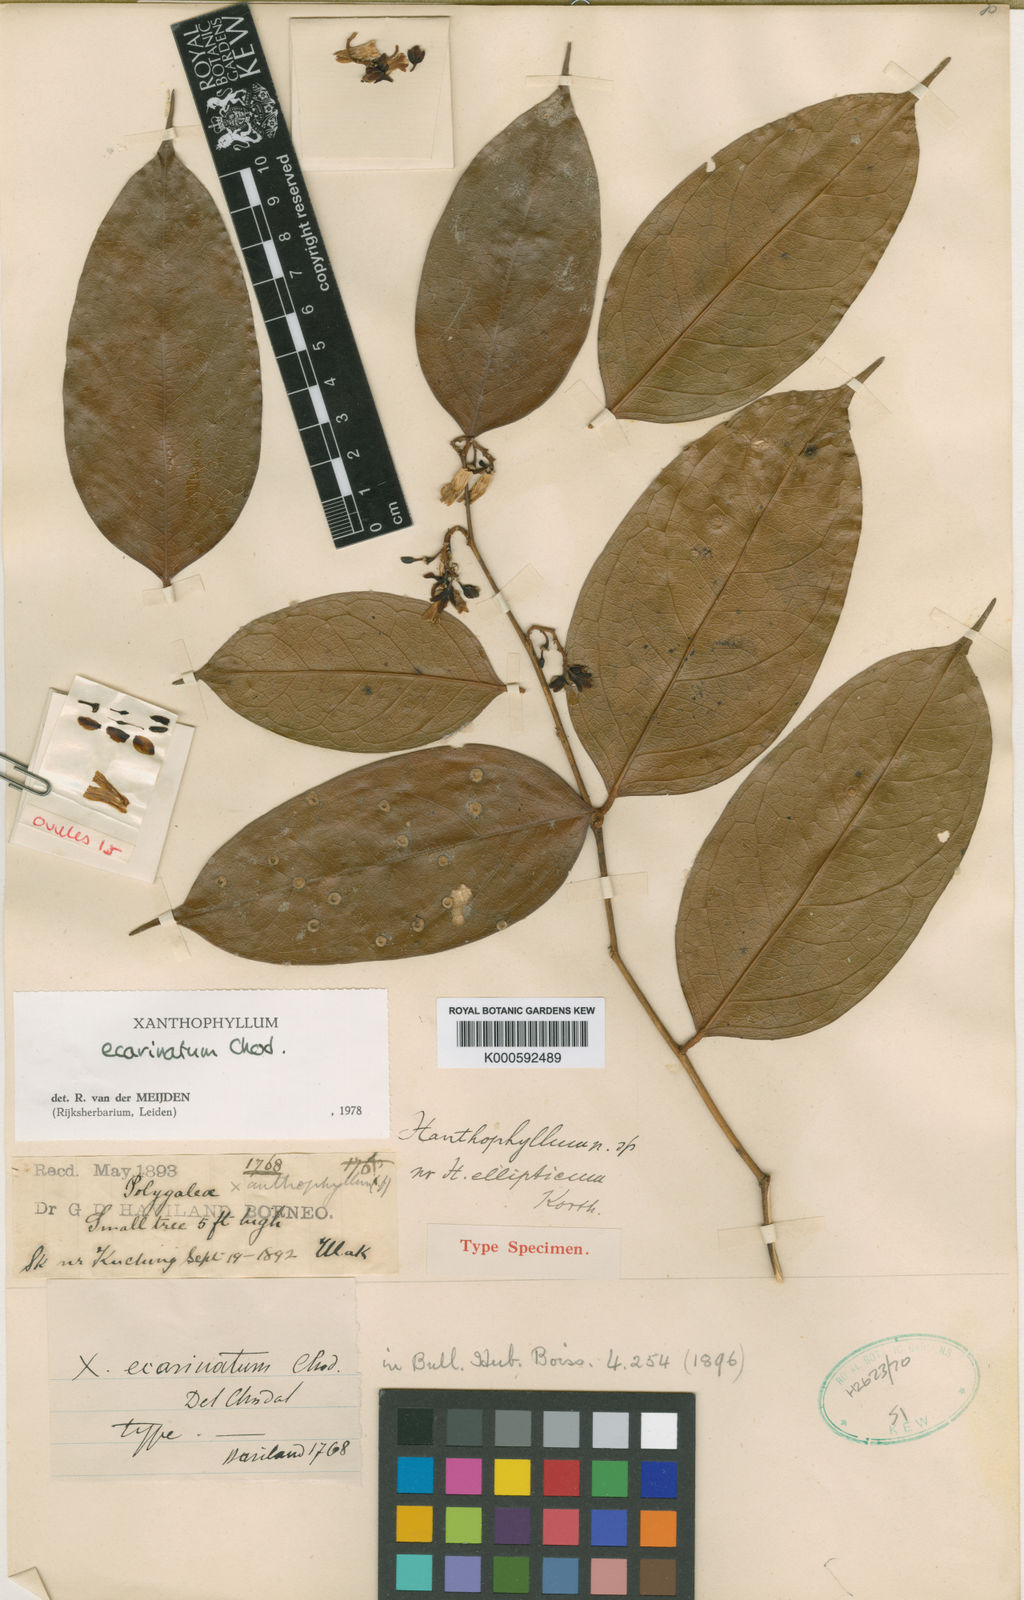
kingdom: Plantae
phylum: Tracheophyta
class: Magnoliopsida
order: Fabales
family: Polygalaceae
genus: Xanthophyllum
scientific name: Xanthophyllum ecarinatum
